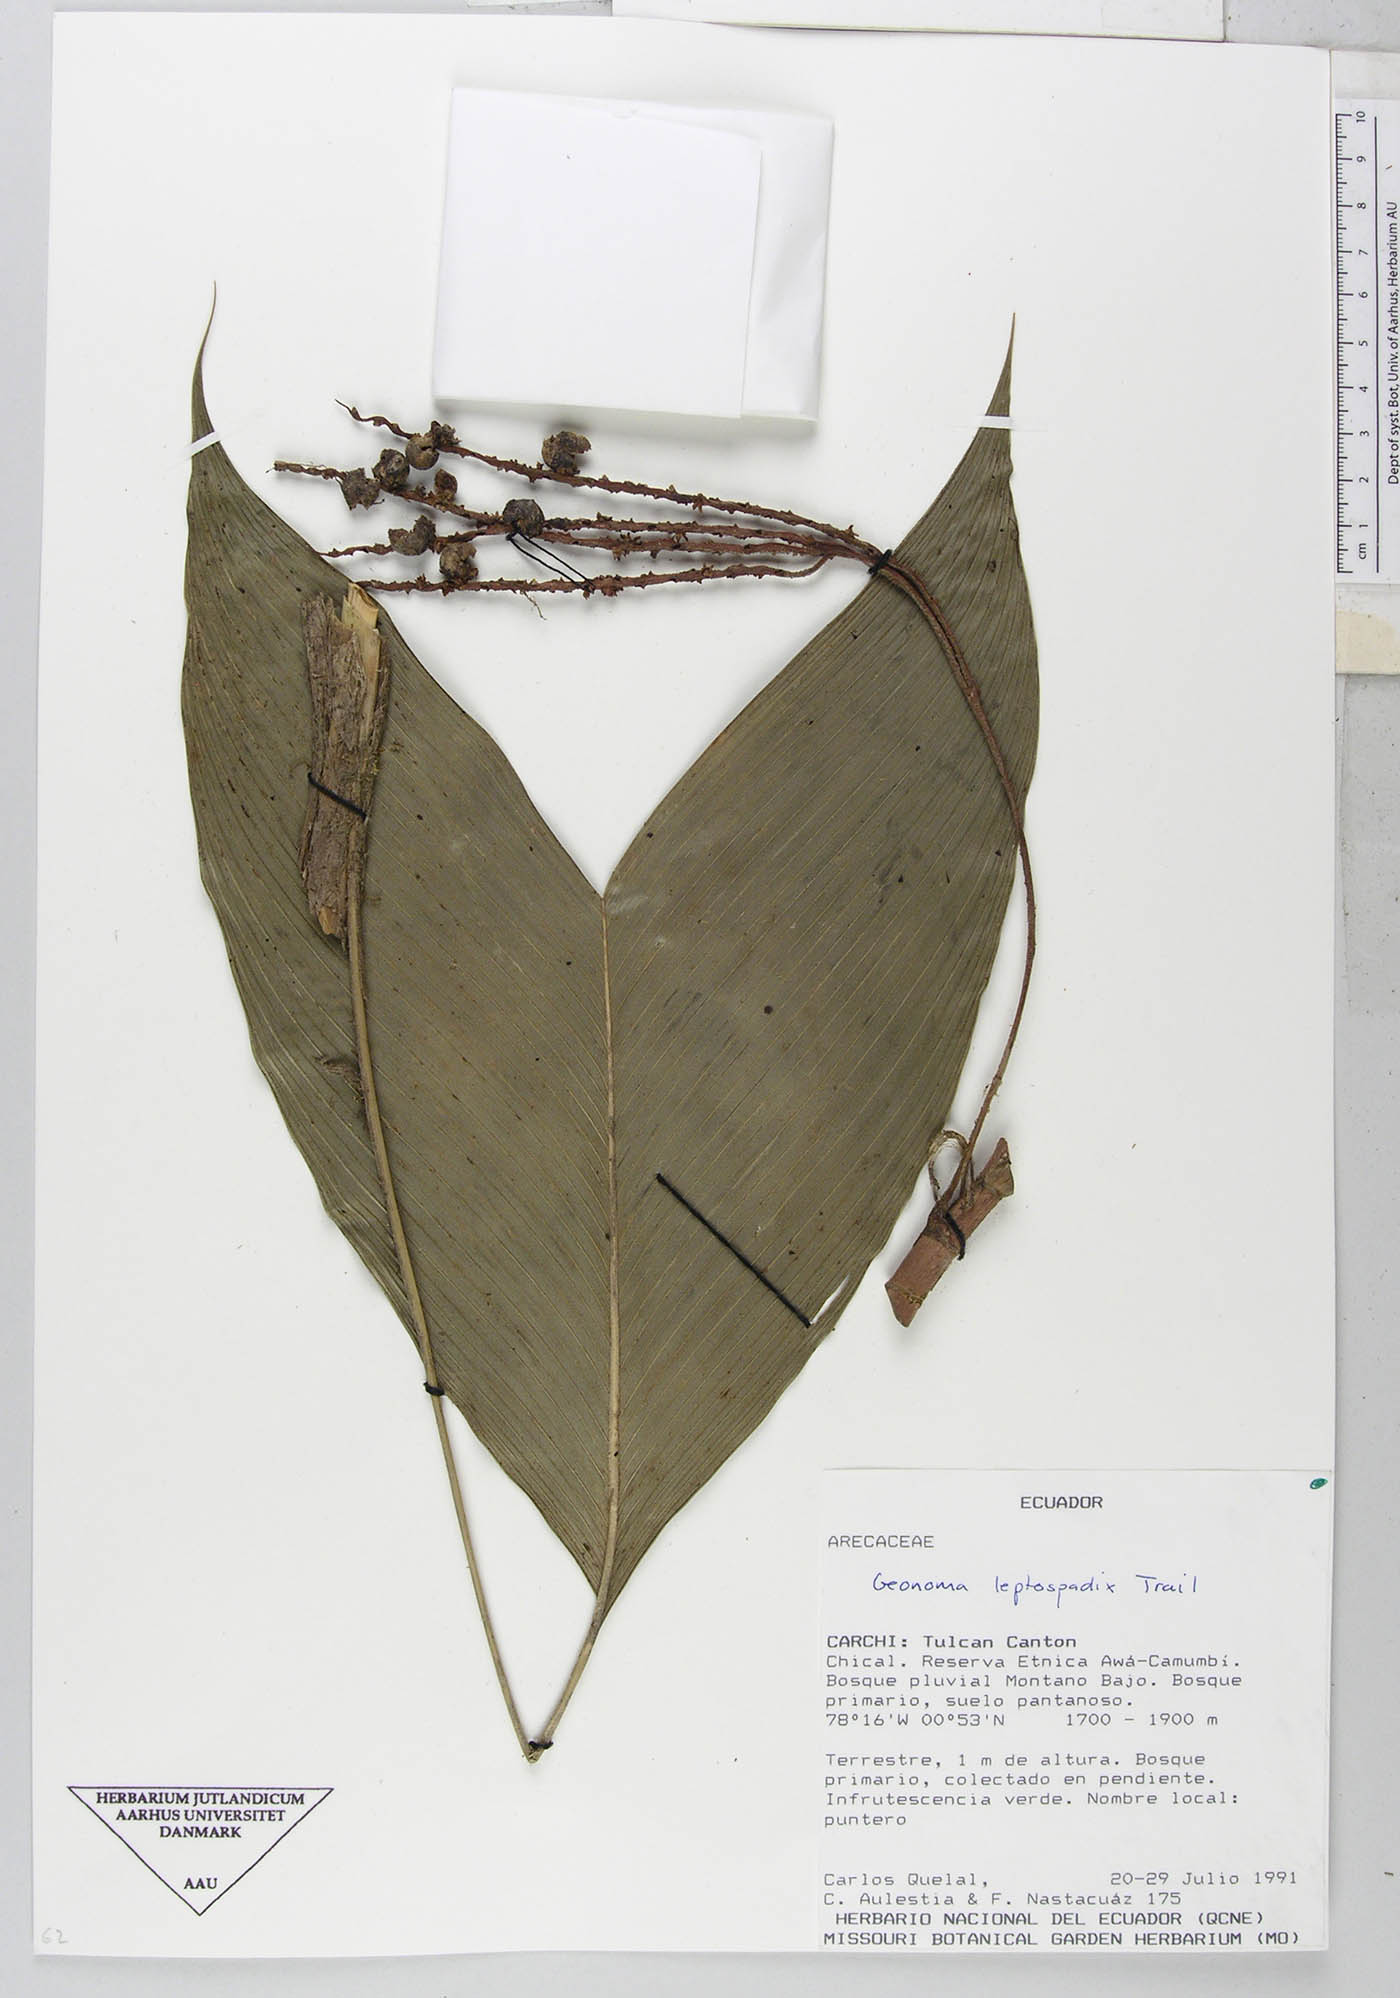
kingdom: Plantae
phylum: Tracheophyta
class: Liliopsida
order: Arecales
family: Arecaceae
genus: Geonoma
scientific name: Geonoma lanata
